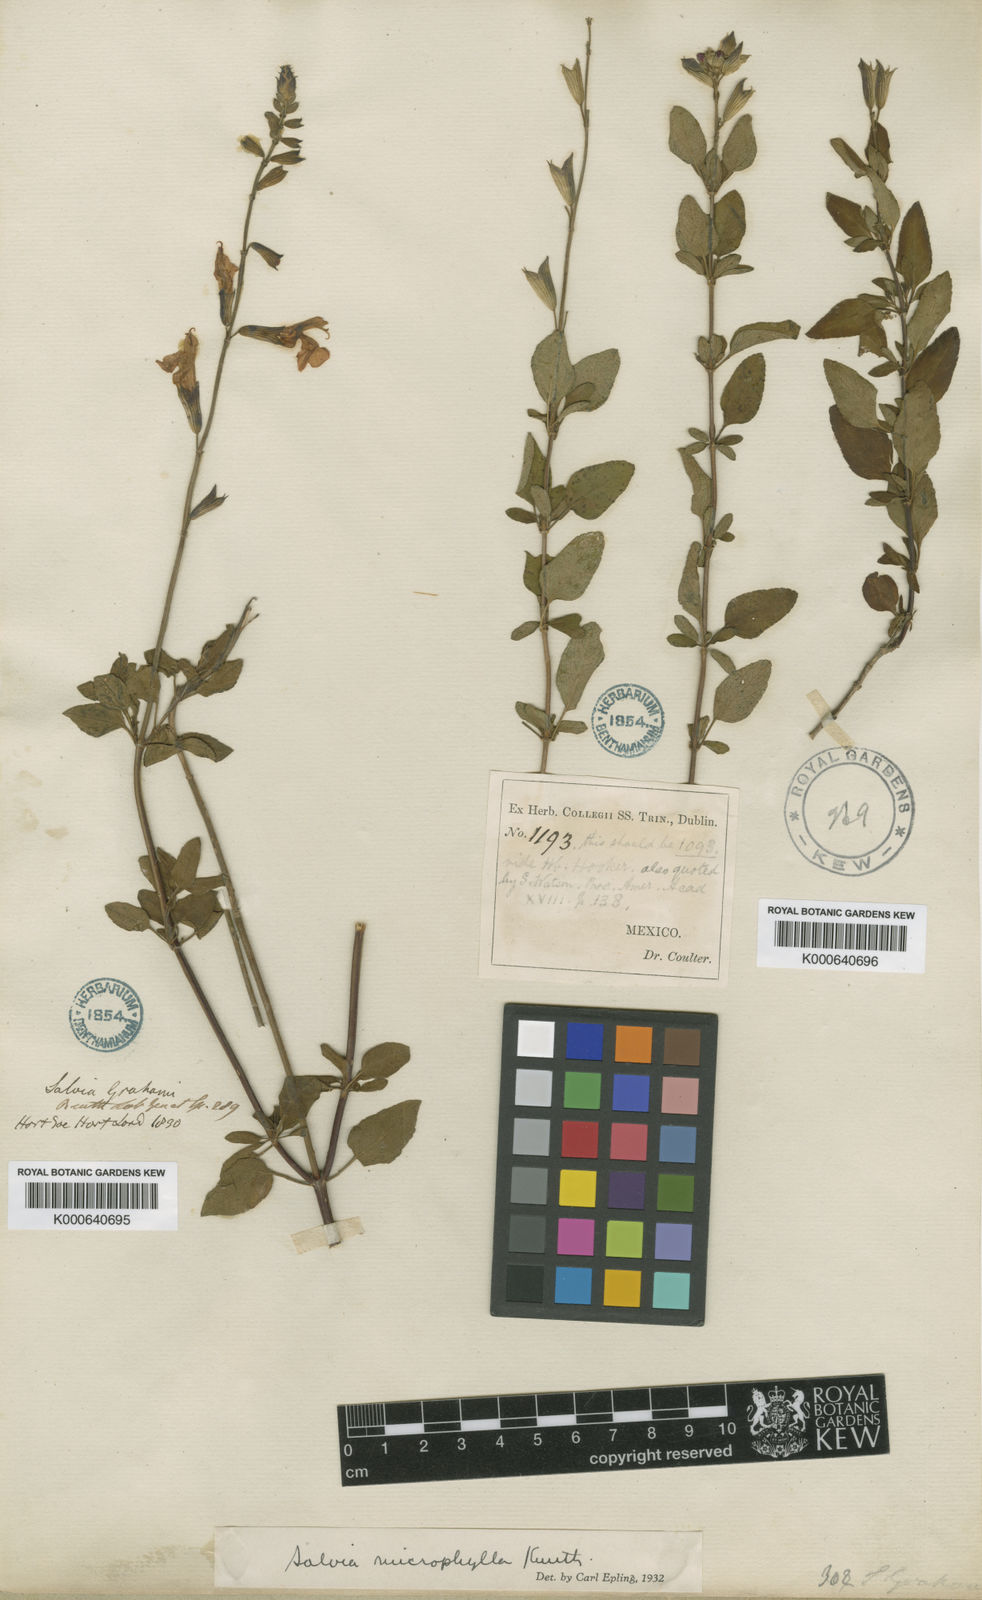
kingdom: Plantae
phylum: Tracheophyta
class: Magnoliopsida
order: Lamiales
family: Lamiaceae
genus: Salvia
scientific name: Salvia microphylla
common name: Baby sage
